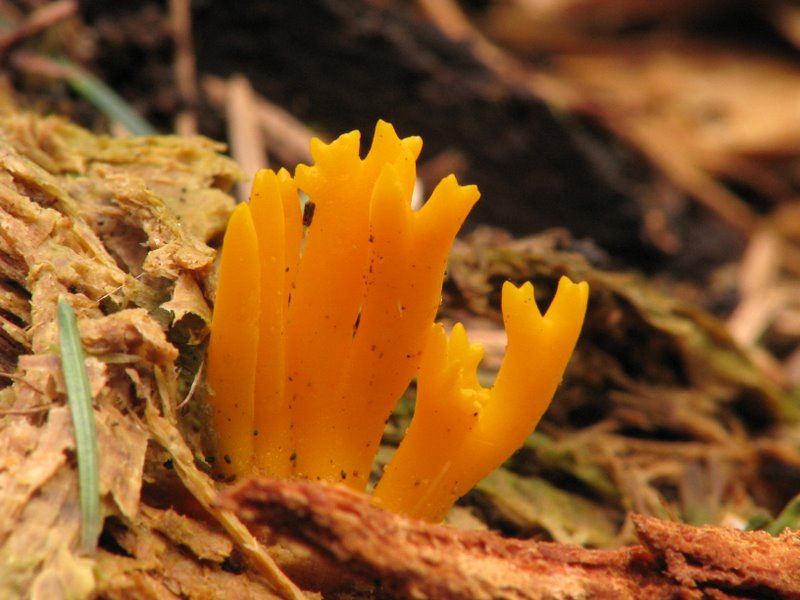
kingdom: Fungi
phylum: Basidiomycota
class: Dacrymycetes
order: Dacrymycetales
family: Dacrymycetaceae
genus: Calocera
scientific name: Calocera viscosa
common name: almindelig guldgaffel
